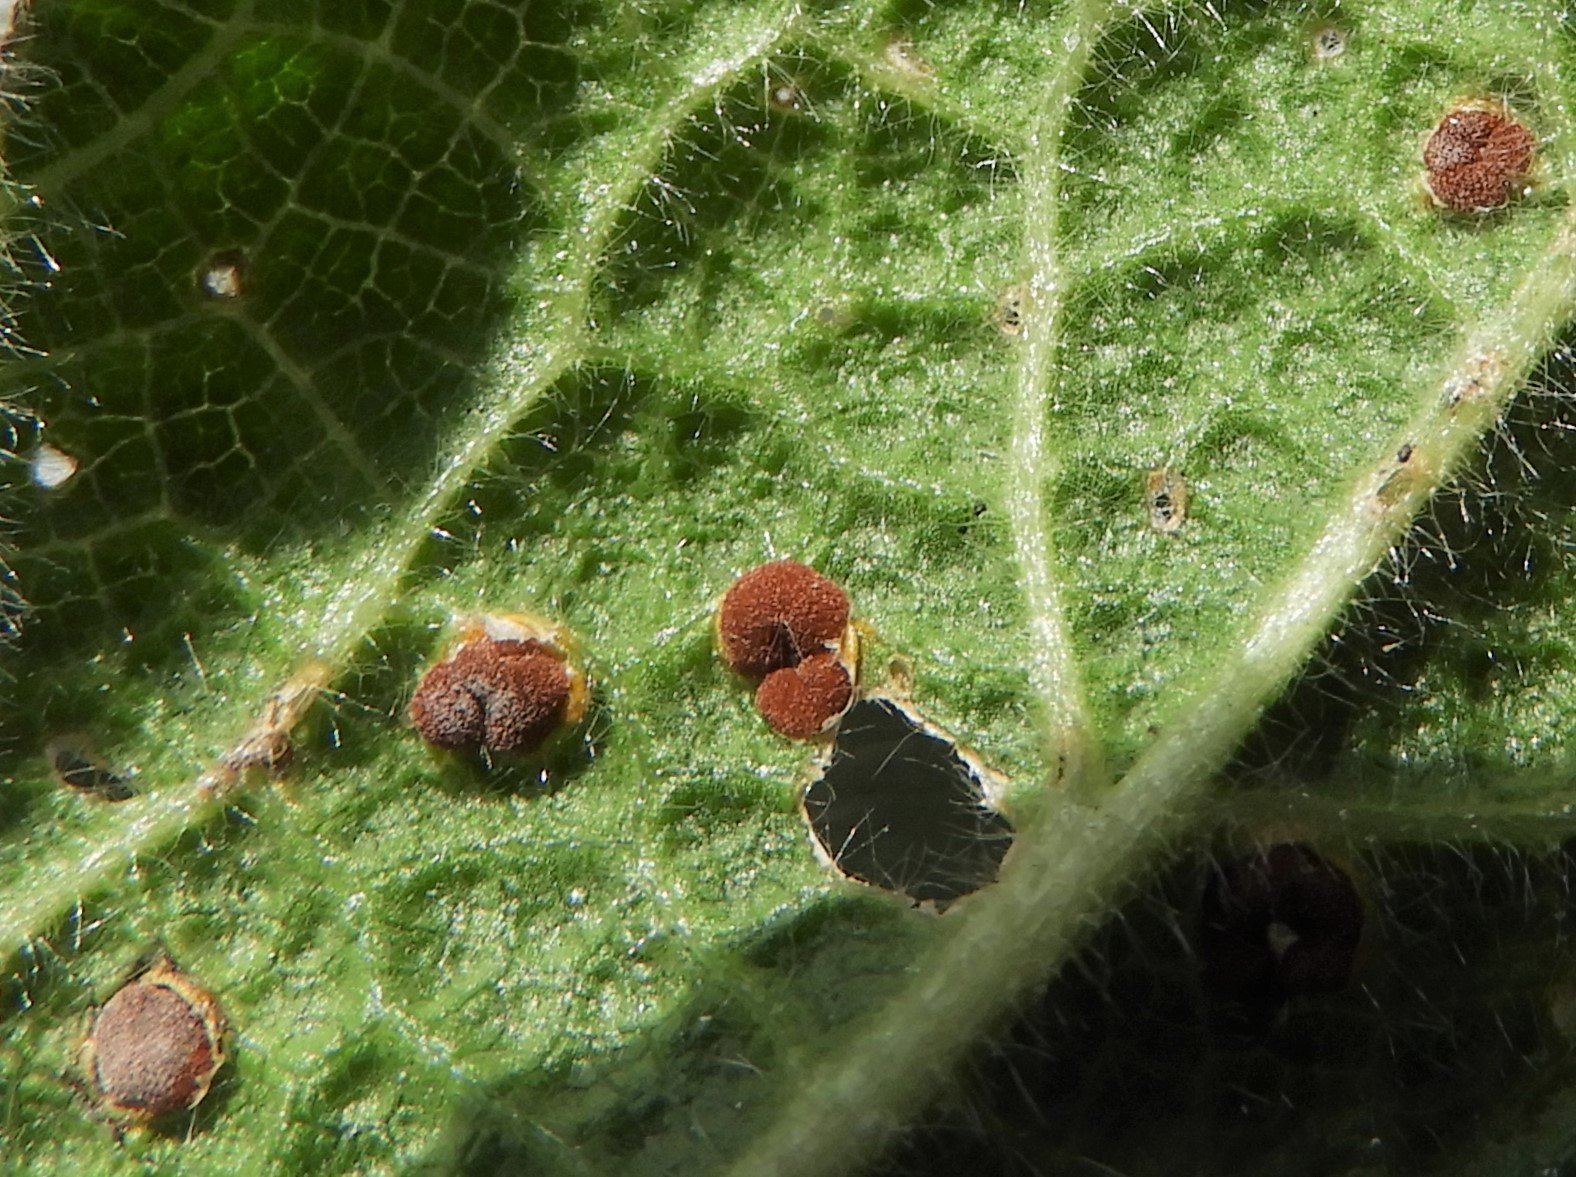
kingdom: Fungi
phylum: Basidiomycota
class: Pucciniomycetes
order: Pucciniales
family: Pucciniaceae
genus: Puccinia
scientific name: Puccinia malvacearum
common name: stokrose-tvecellerust
